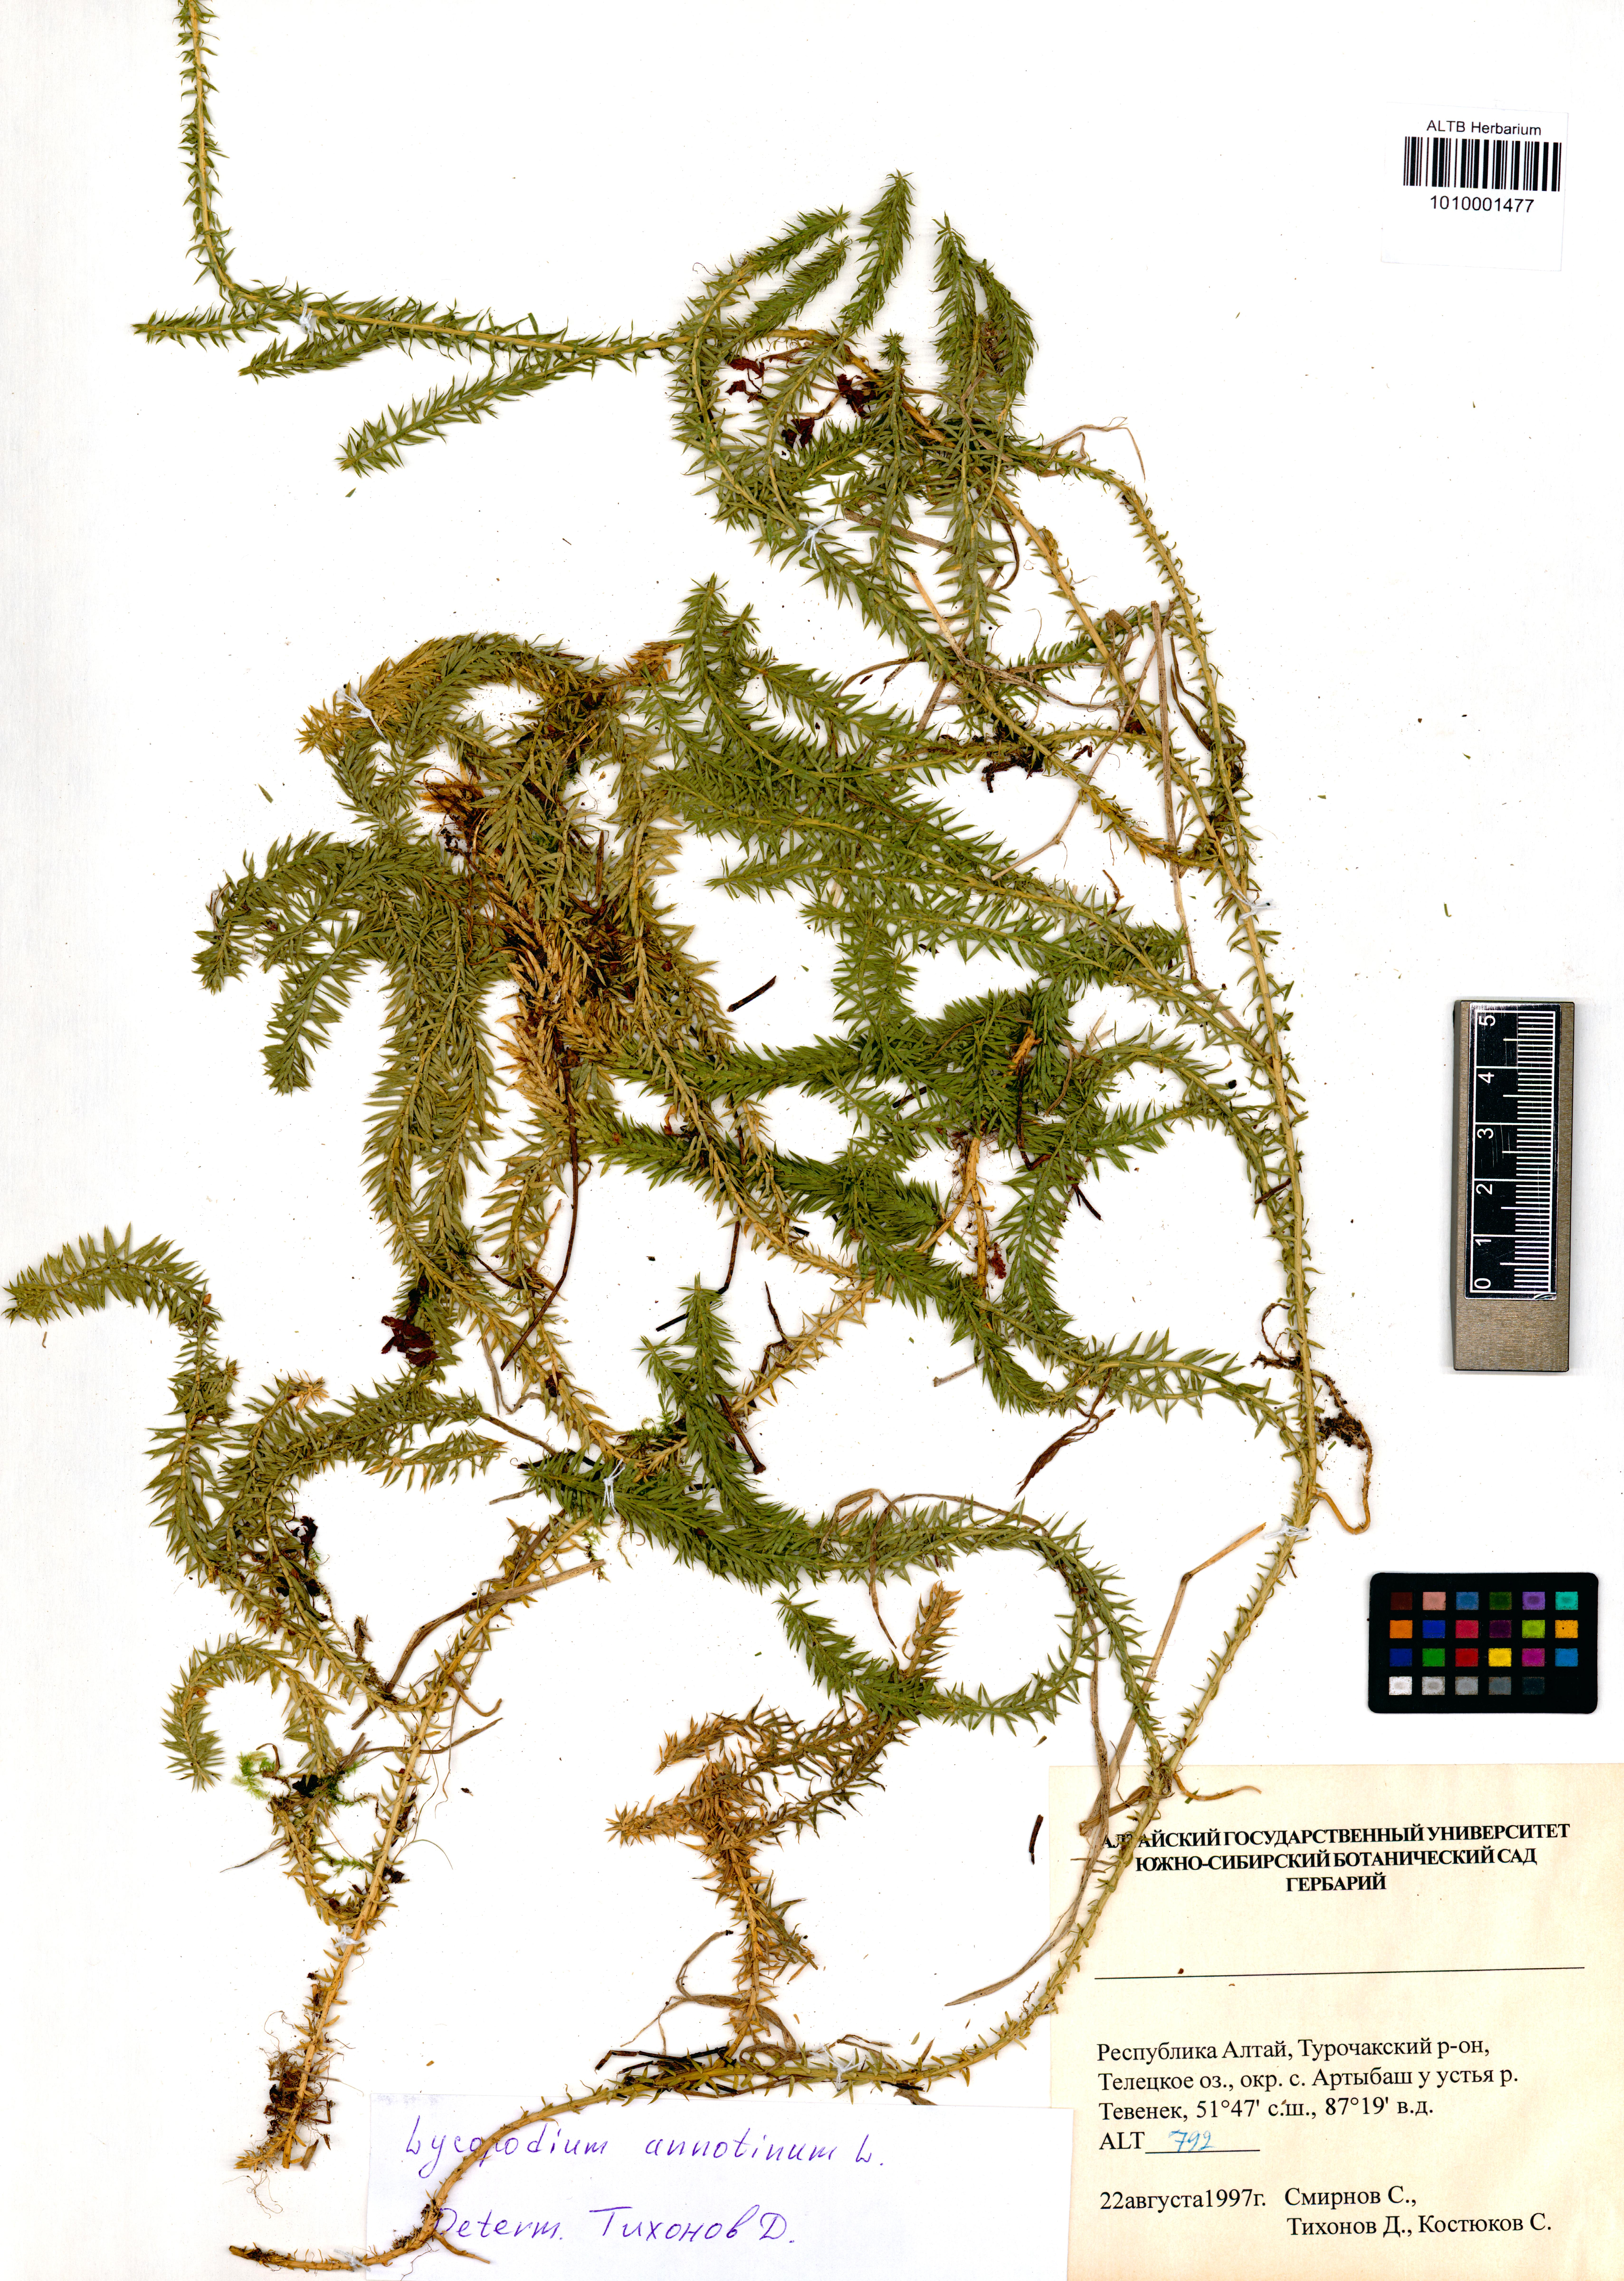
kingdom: Plantae
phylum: Tracheophyta
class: Lycopodiopsida
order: Lycopodiales
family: Lycopodiaceae
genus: Spinulum
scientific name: Spinulum annotinum
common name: Interrupted club-moss
